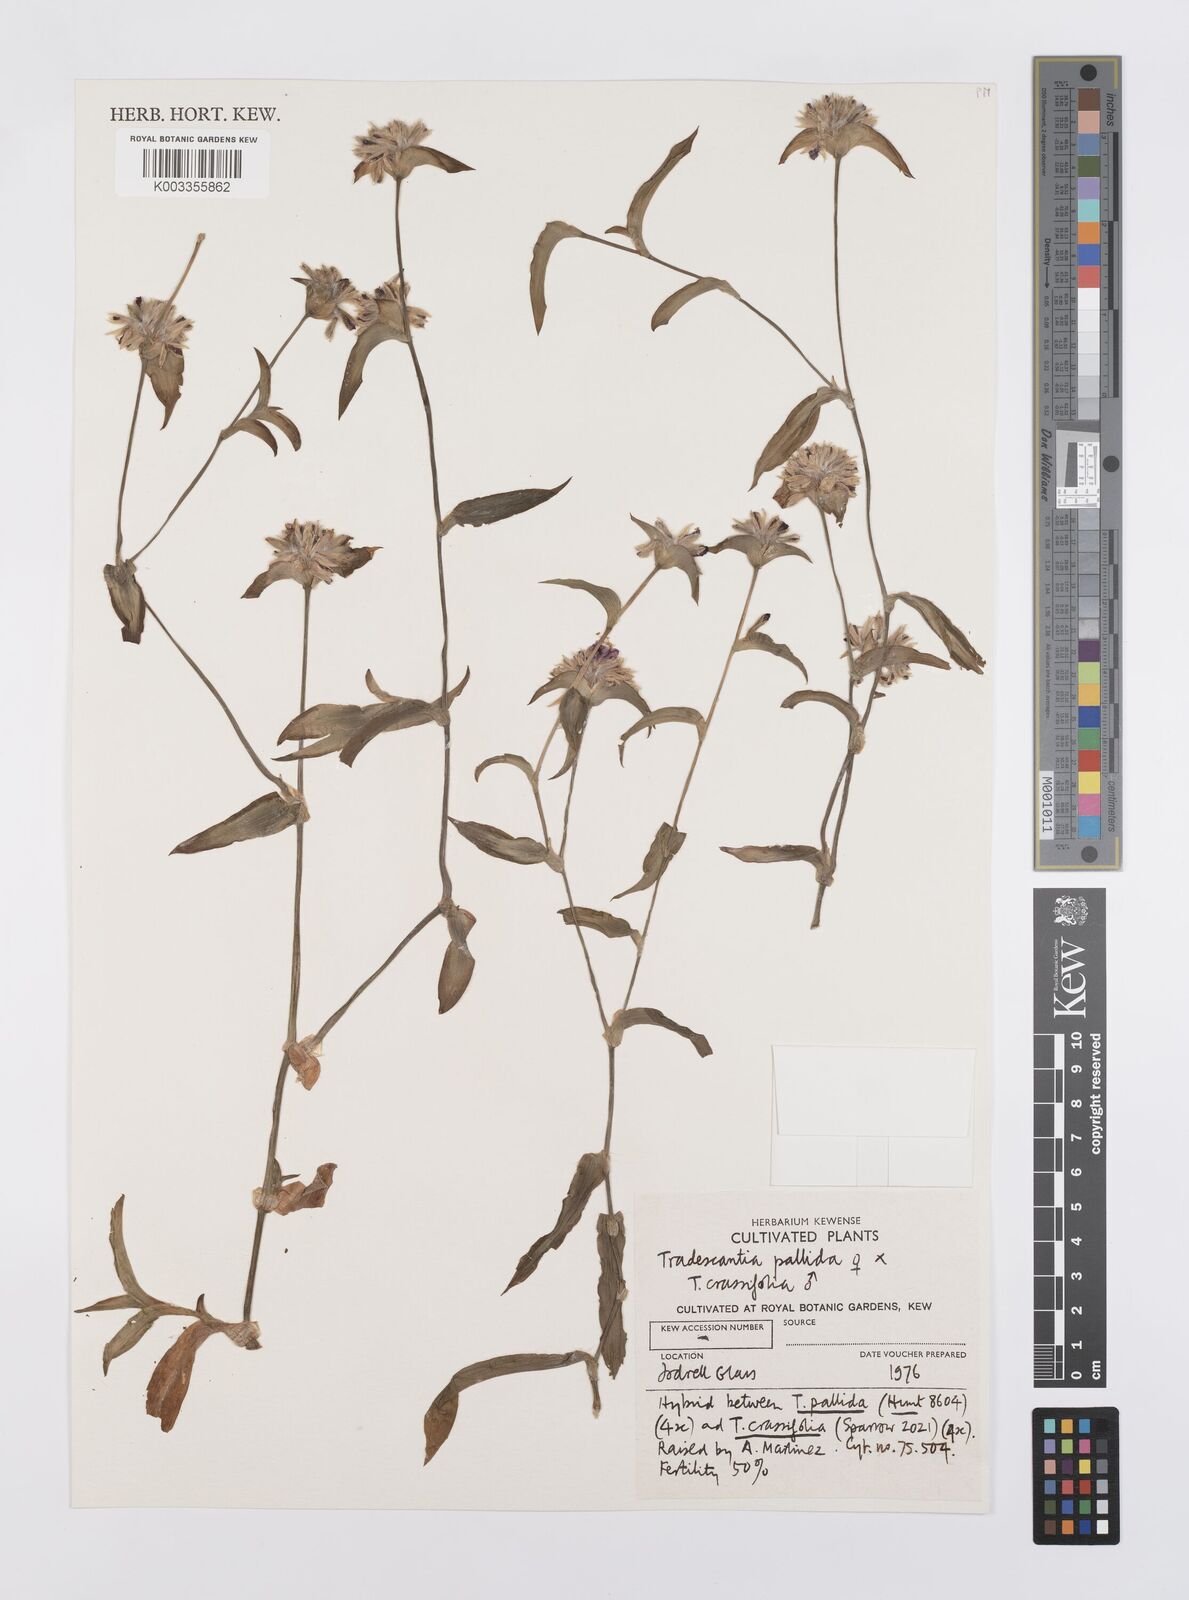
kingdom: Plantae
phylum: Tracheophyta
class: Liliopsida
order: Commelinales
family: Commelinaceae
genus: Tradescantia
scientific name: Tradescantia pallida
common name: Purpleheart
